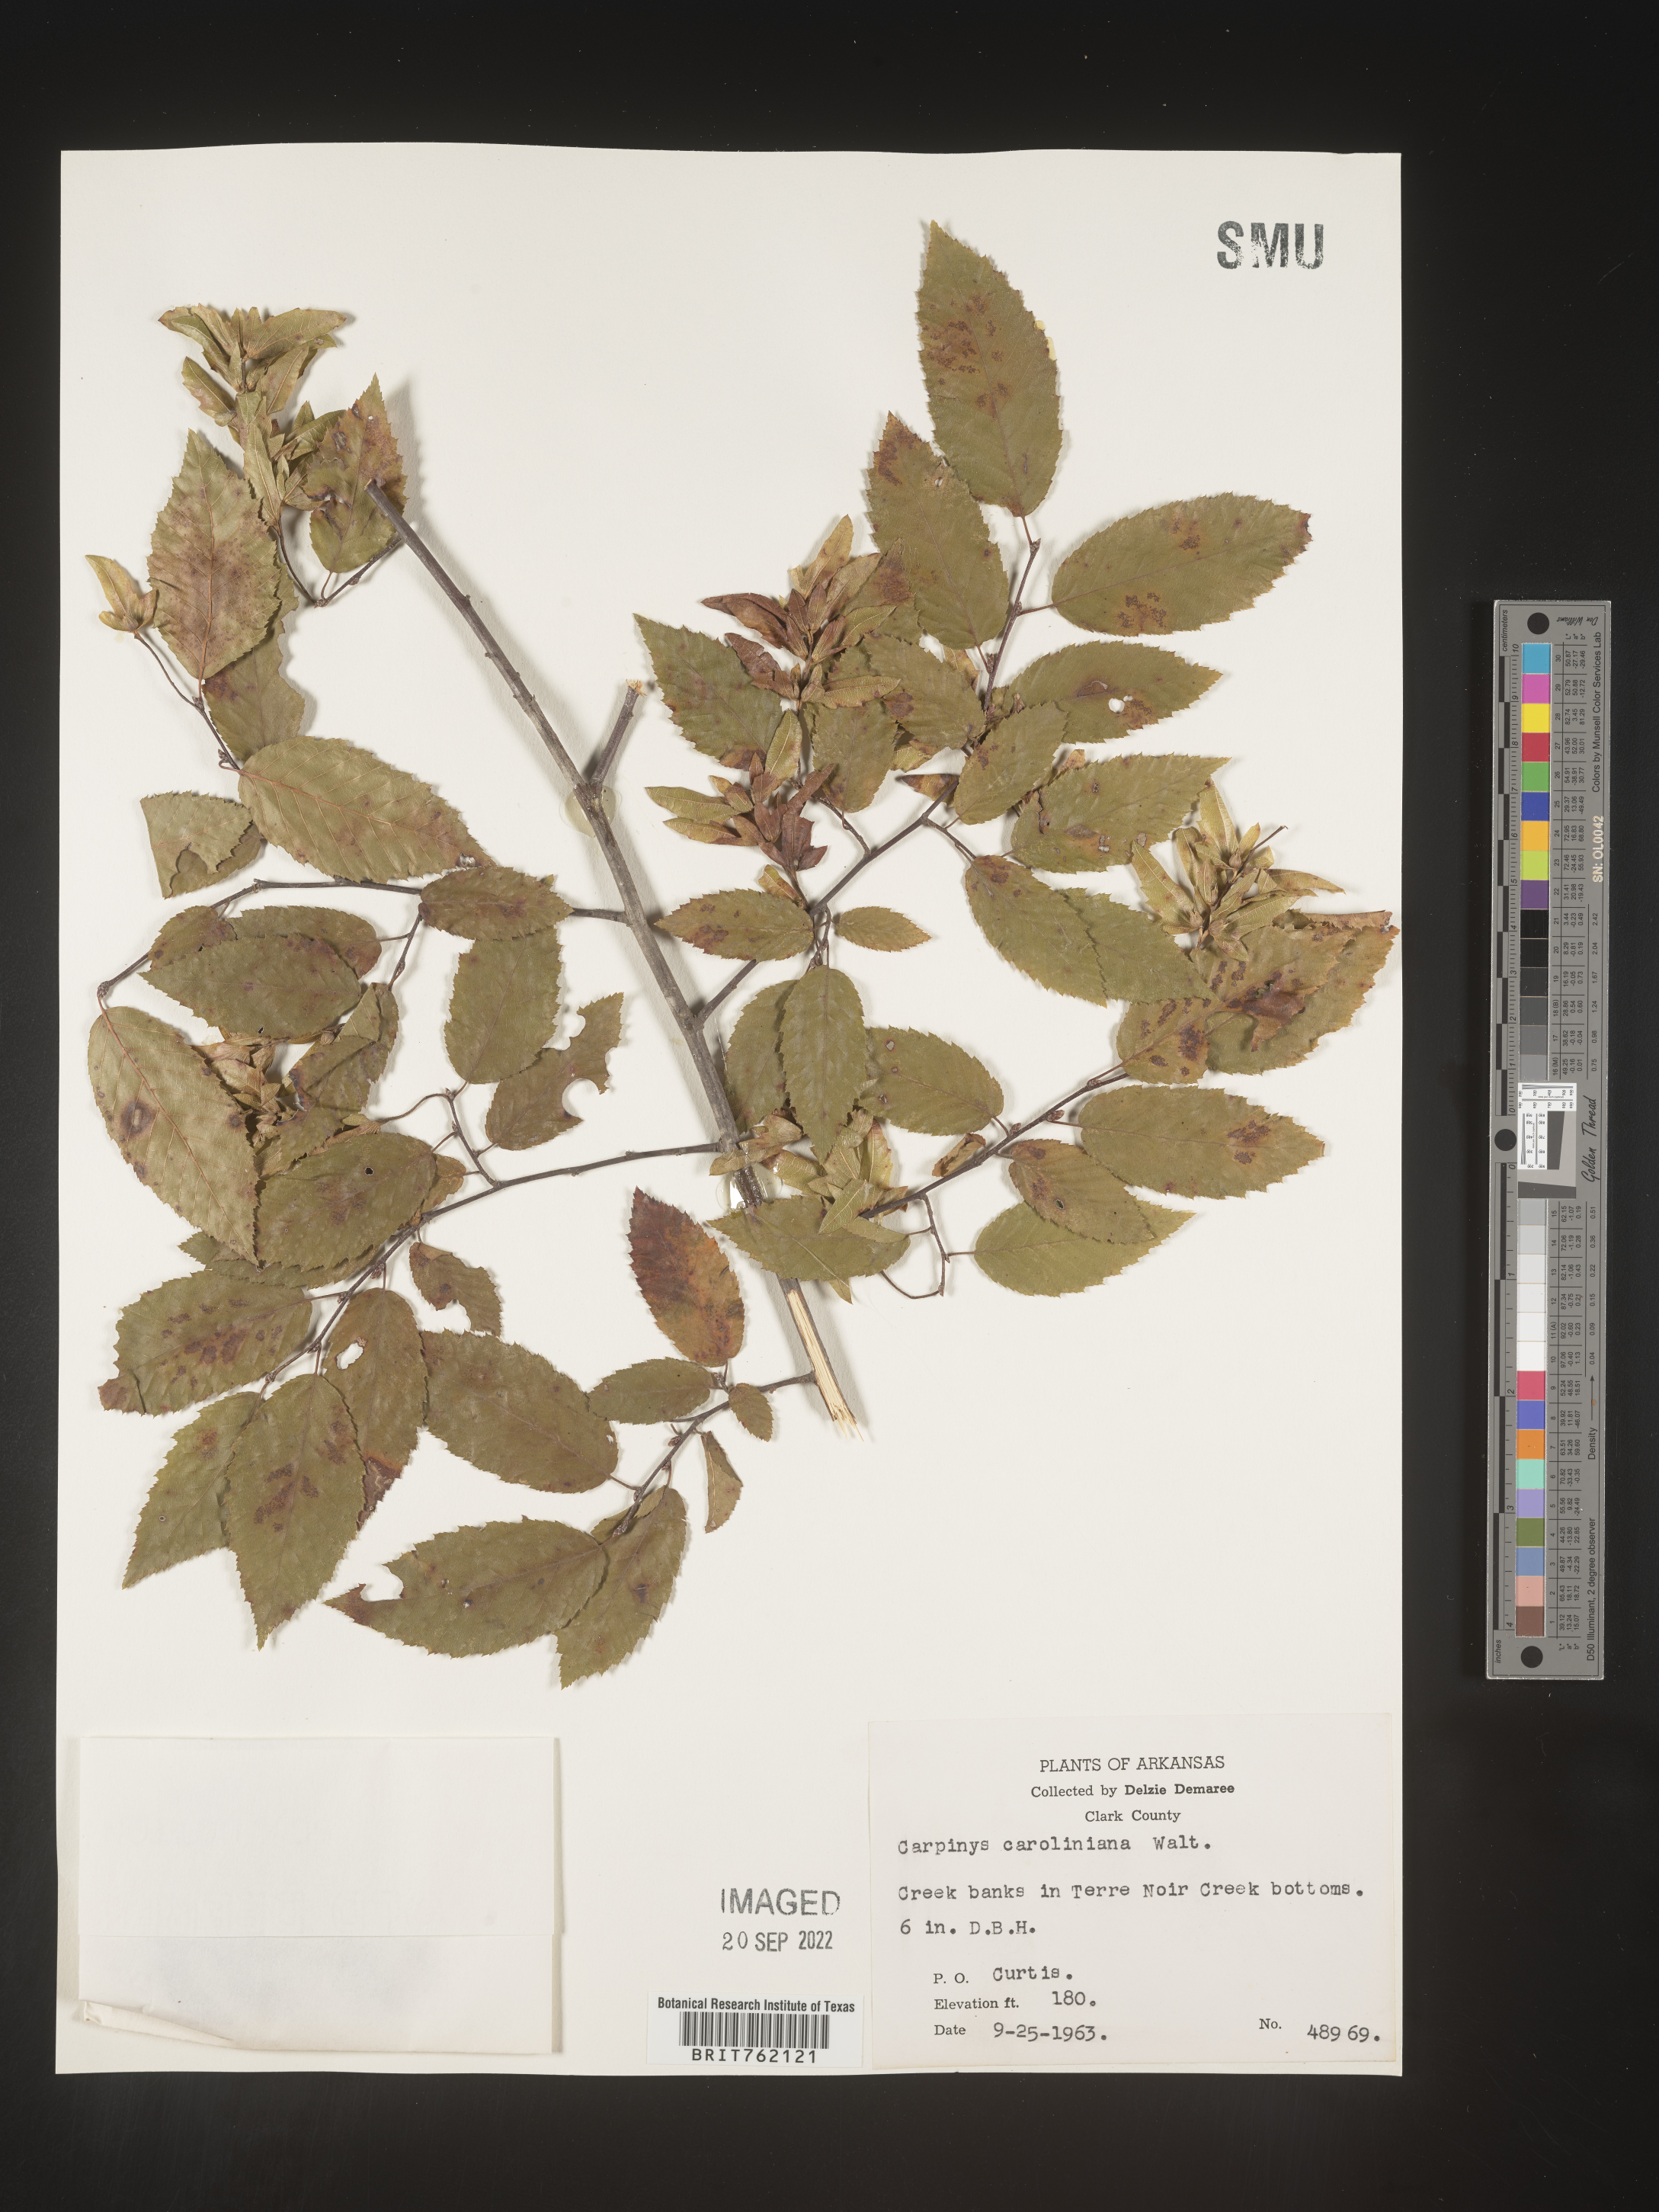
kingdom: Plantae
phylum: Tracheophyta
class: Magnoliopsida
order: Fagales
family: Betulaceae
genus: Carpinus
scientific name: Carpinus caroliniana
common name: American hornbeam
